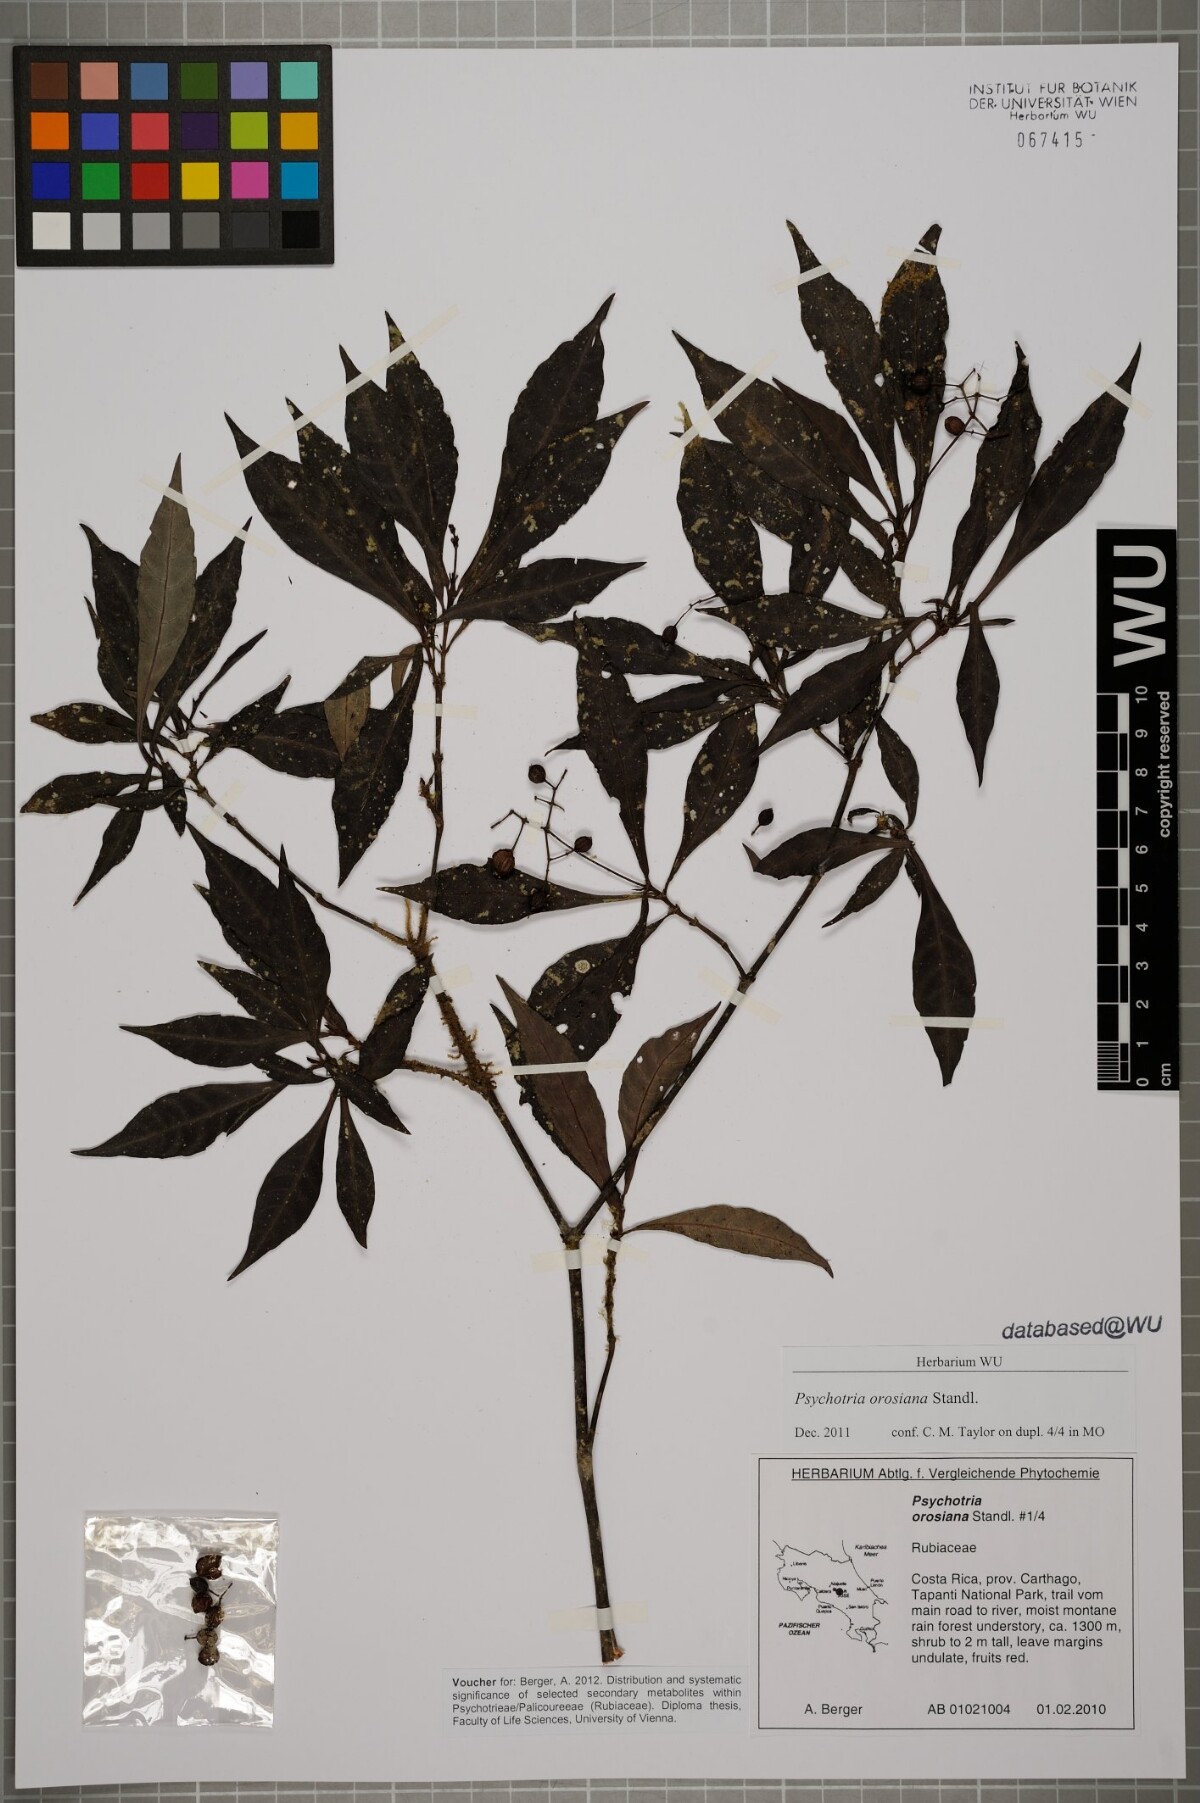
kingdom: Plantae
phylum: Tracheophyta
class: Magnoliopsida
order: Gentianales
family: Rubiaceae
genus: Psychotria
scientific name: Psychotria orosiana
